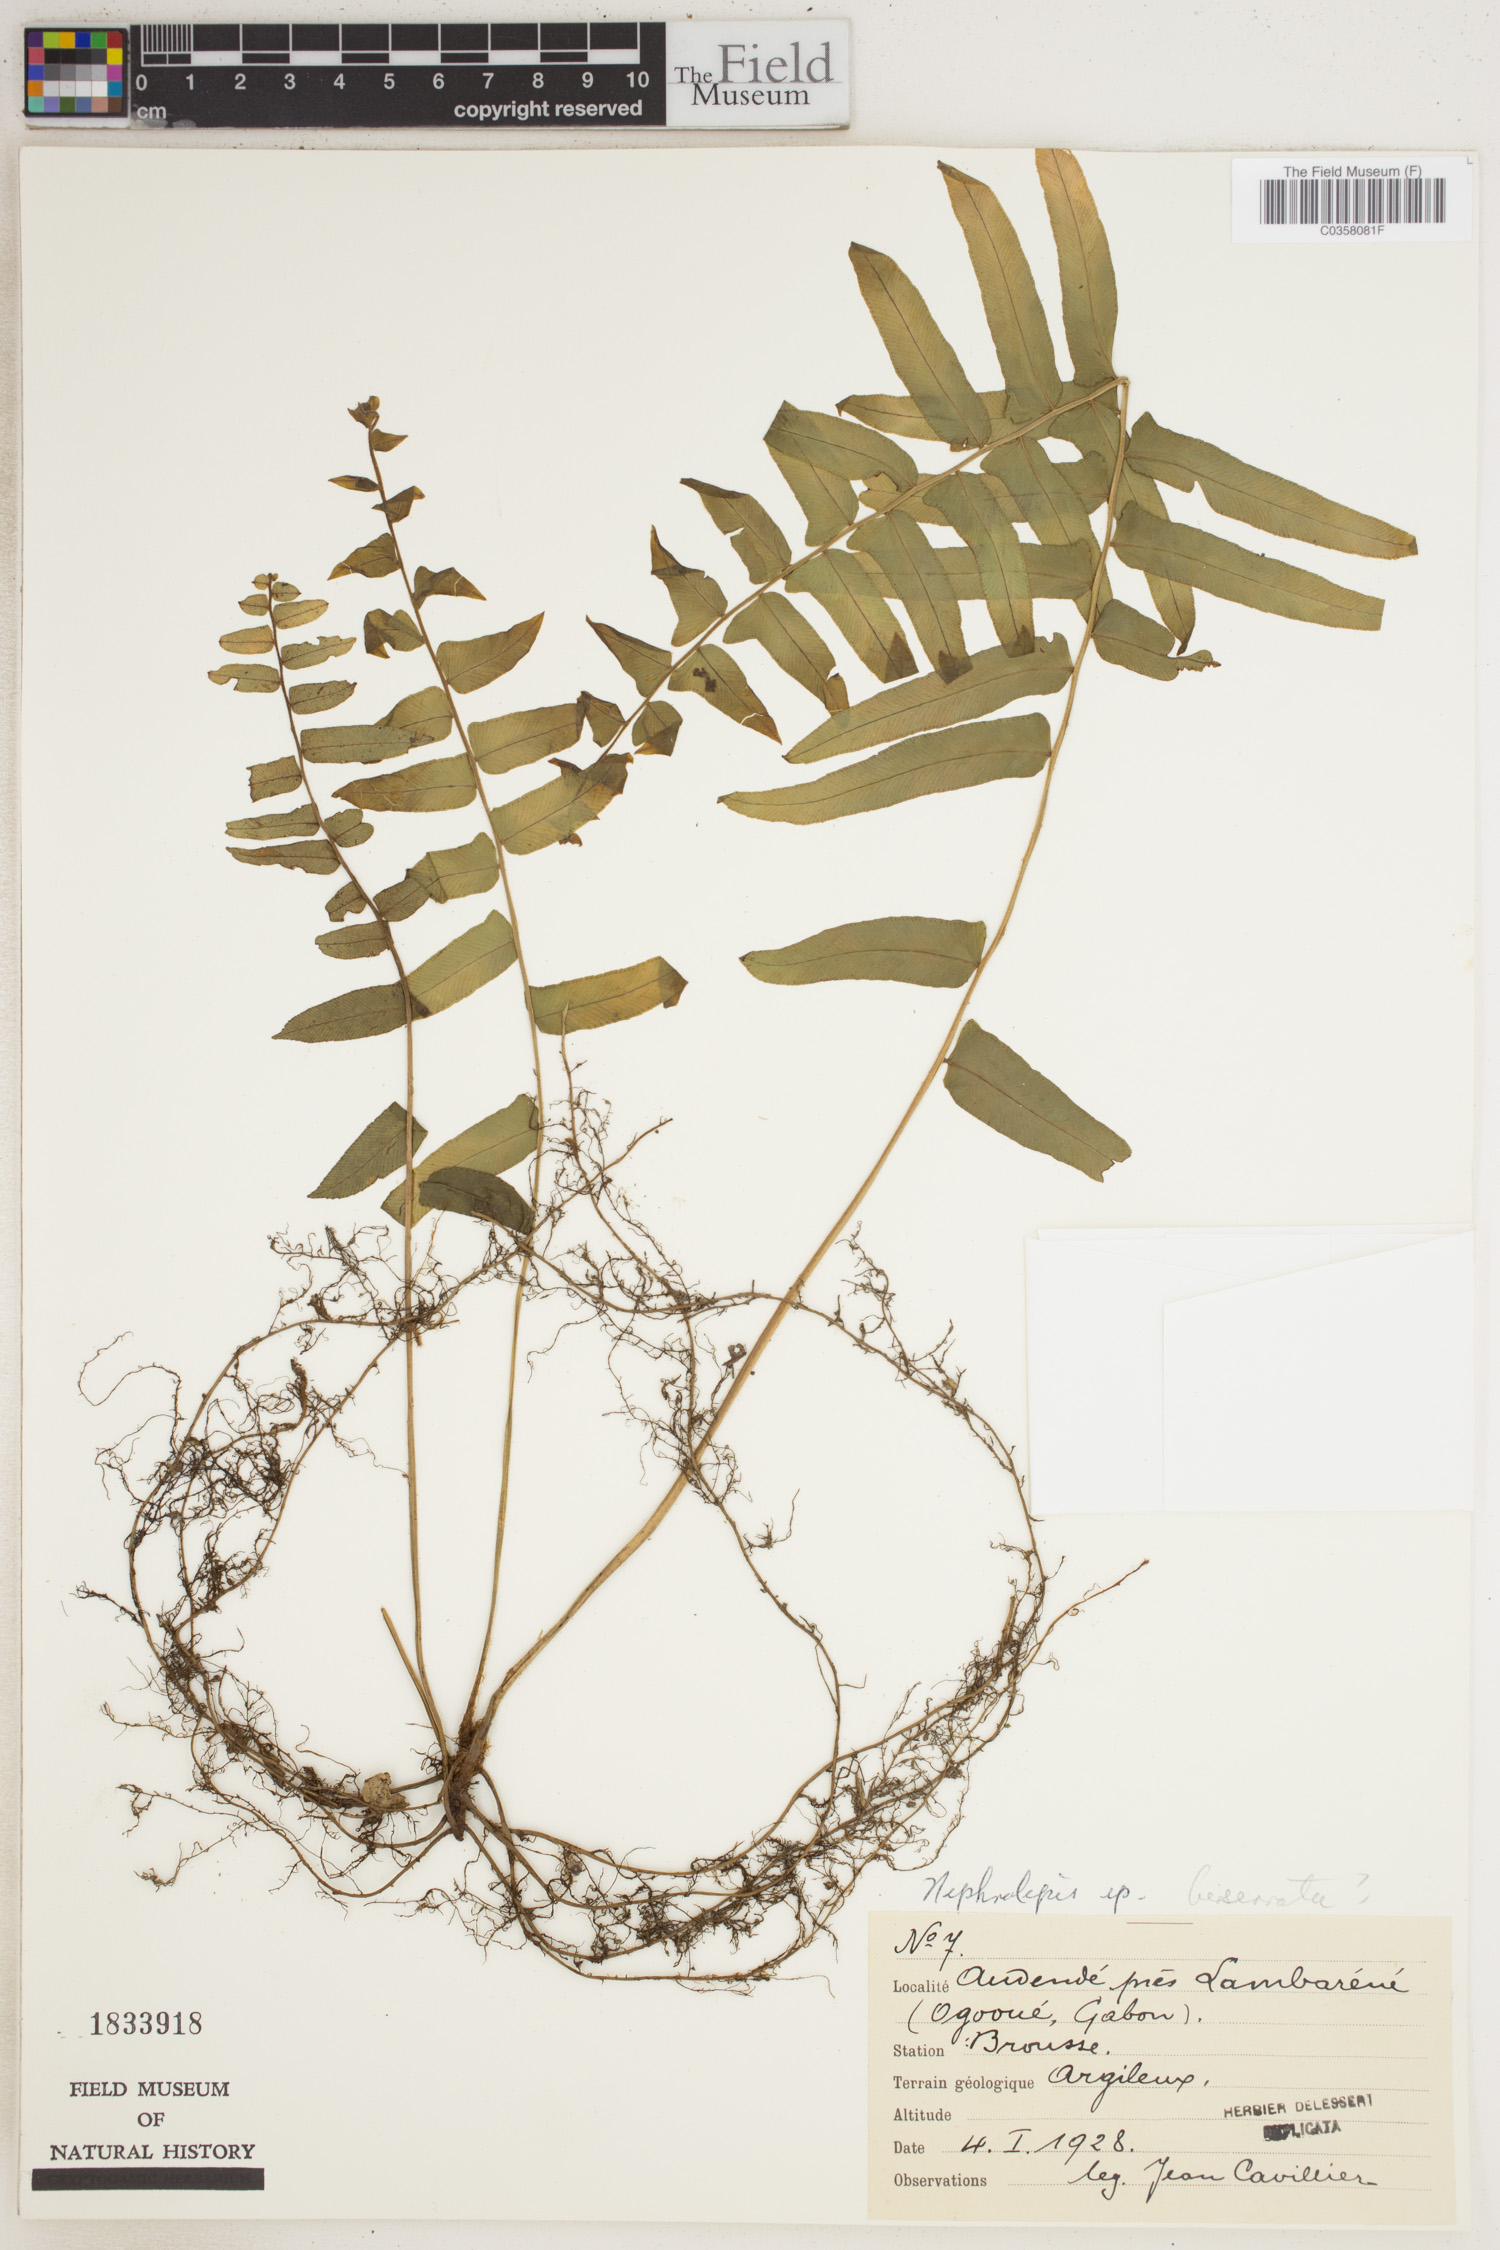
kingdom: Plantae
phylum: Tracheophyta
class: Polypodiopsida
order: Polypodiales
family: Nephrolepidaceae
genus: Nephrolepis
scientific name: Nephrolepis biserrata
